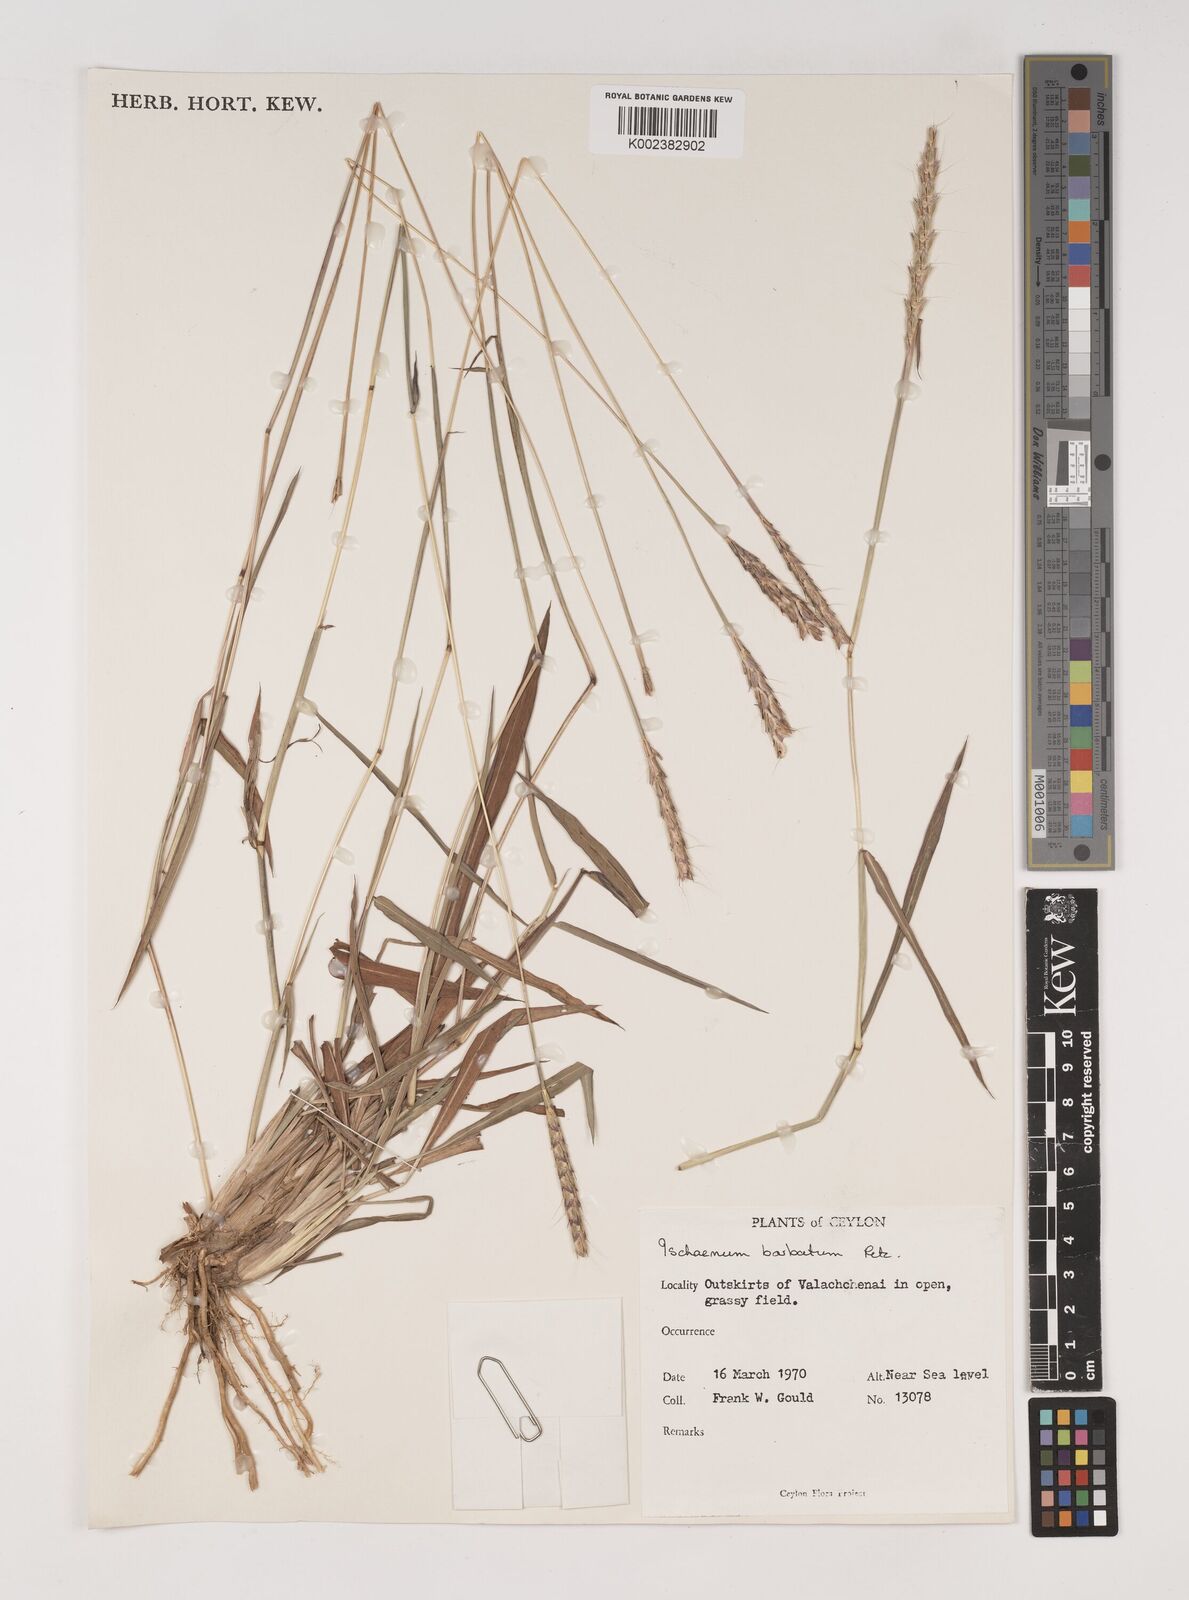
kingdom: Plantae
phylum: Tracheophyta
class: Liliopsida
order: Poales
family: Poaceae
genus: Ischaemum
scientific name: Ischaemum
